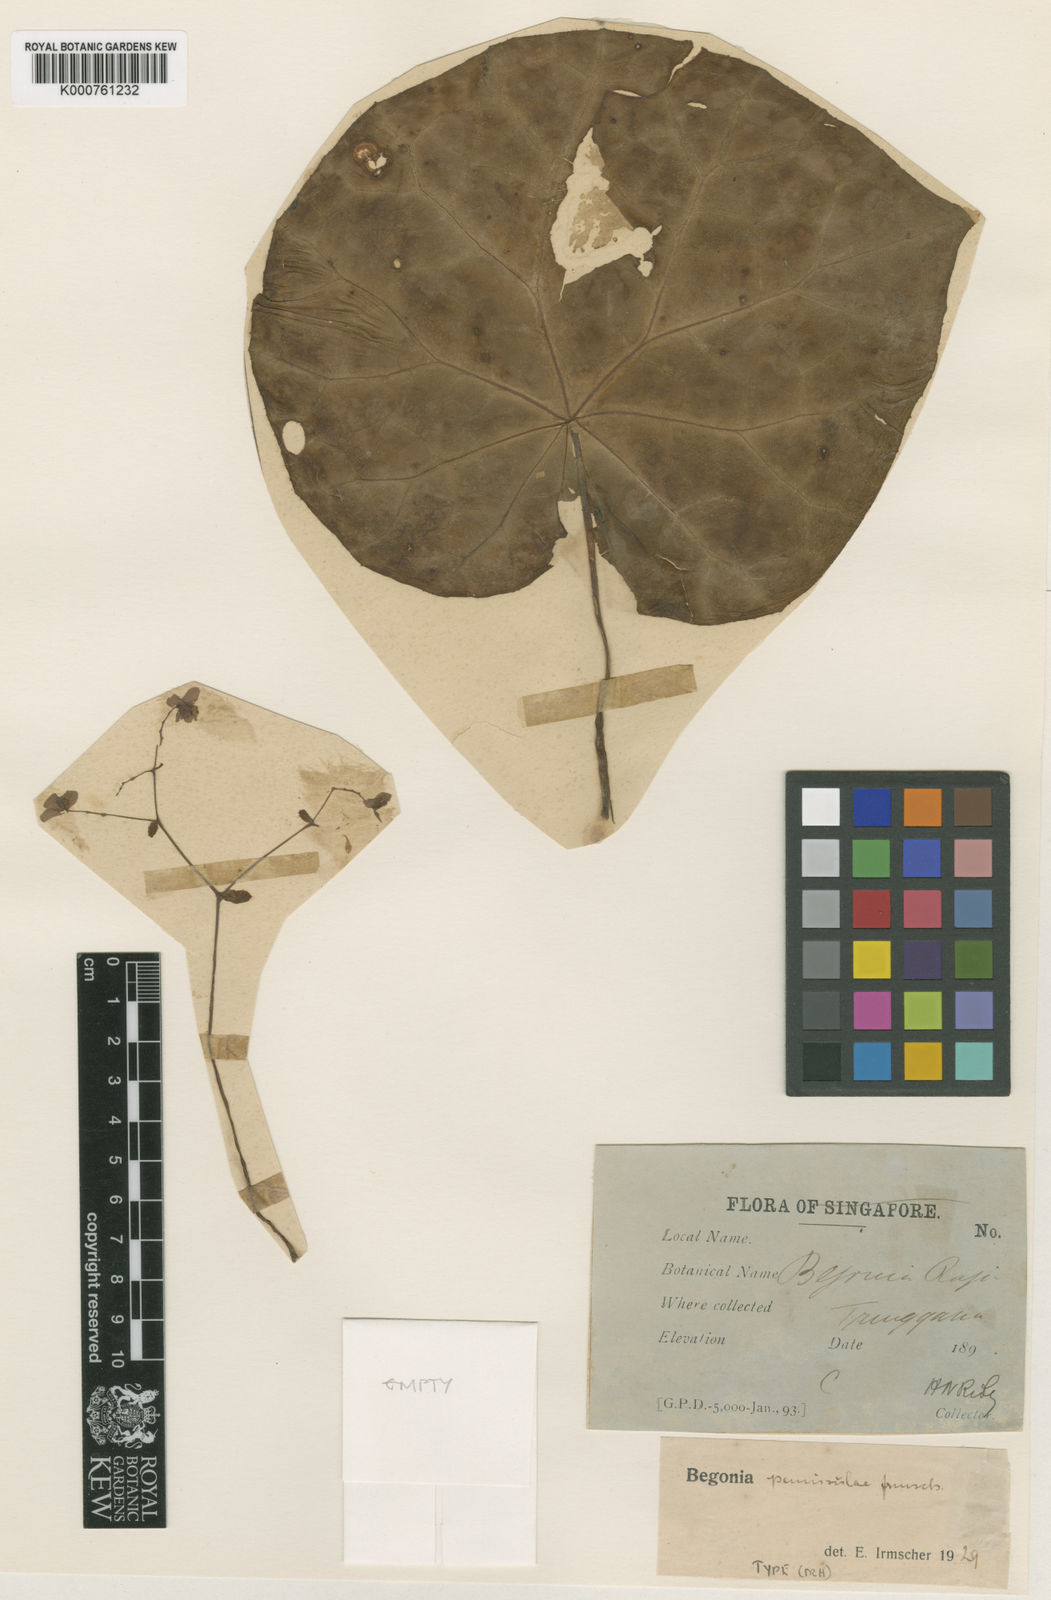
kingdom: Plantae
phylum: Tracheophyta
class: Magnoliopsida
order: Cucurbitales
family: Begoniaceae
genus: Begonia
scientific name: Begonia rajah
